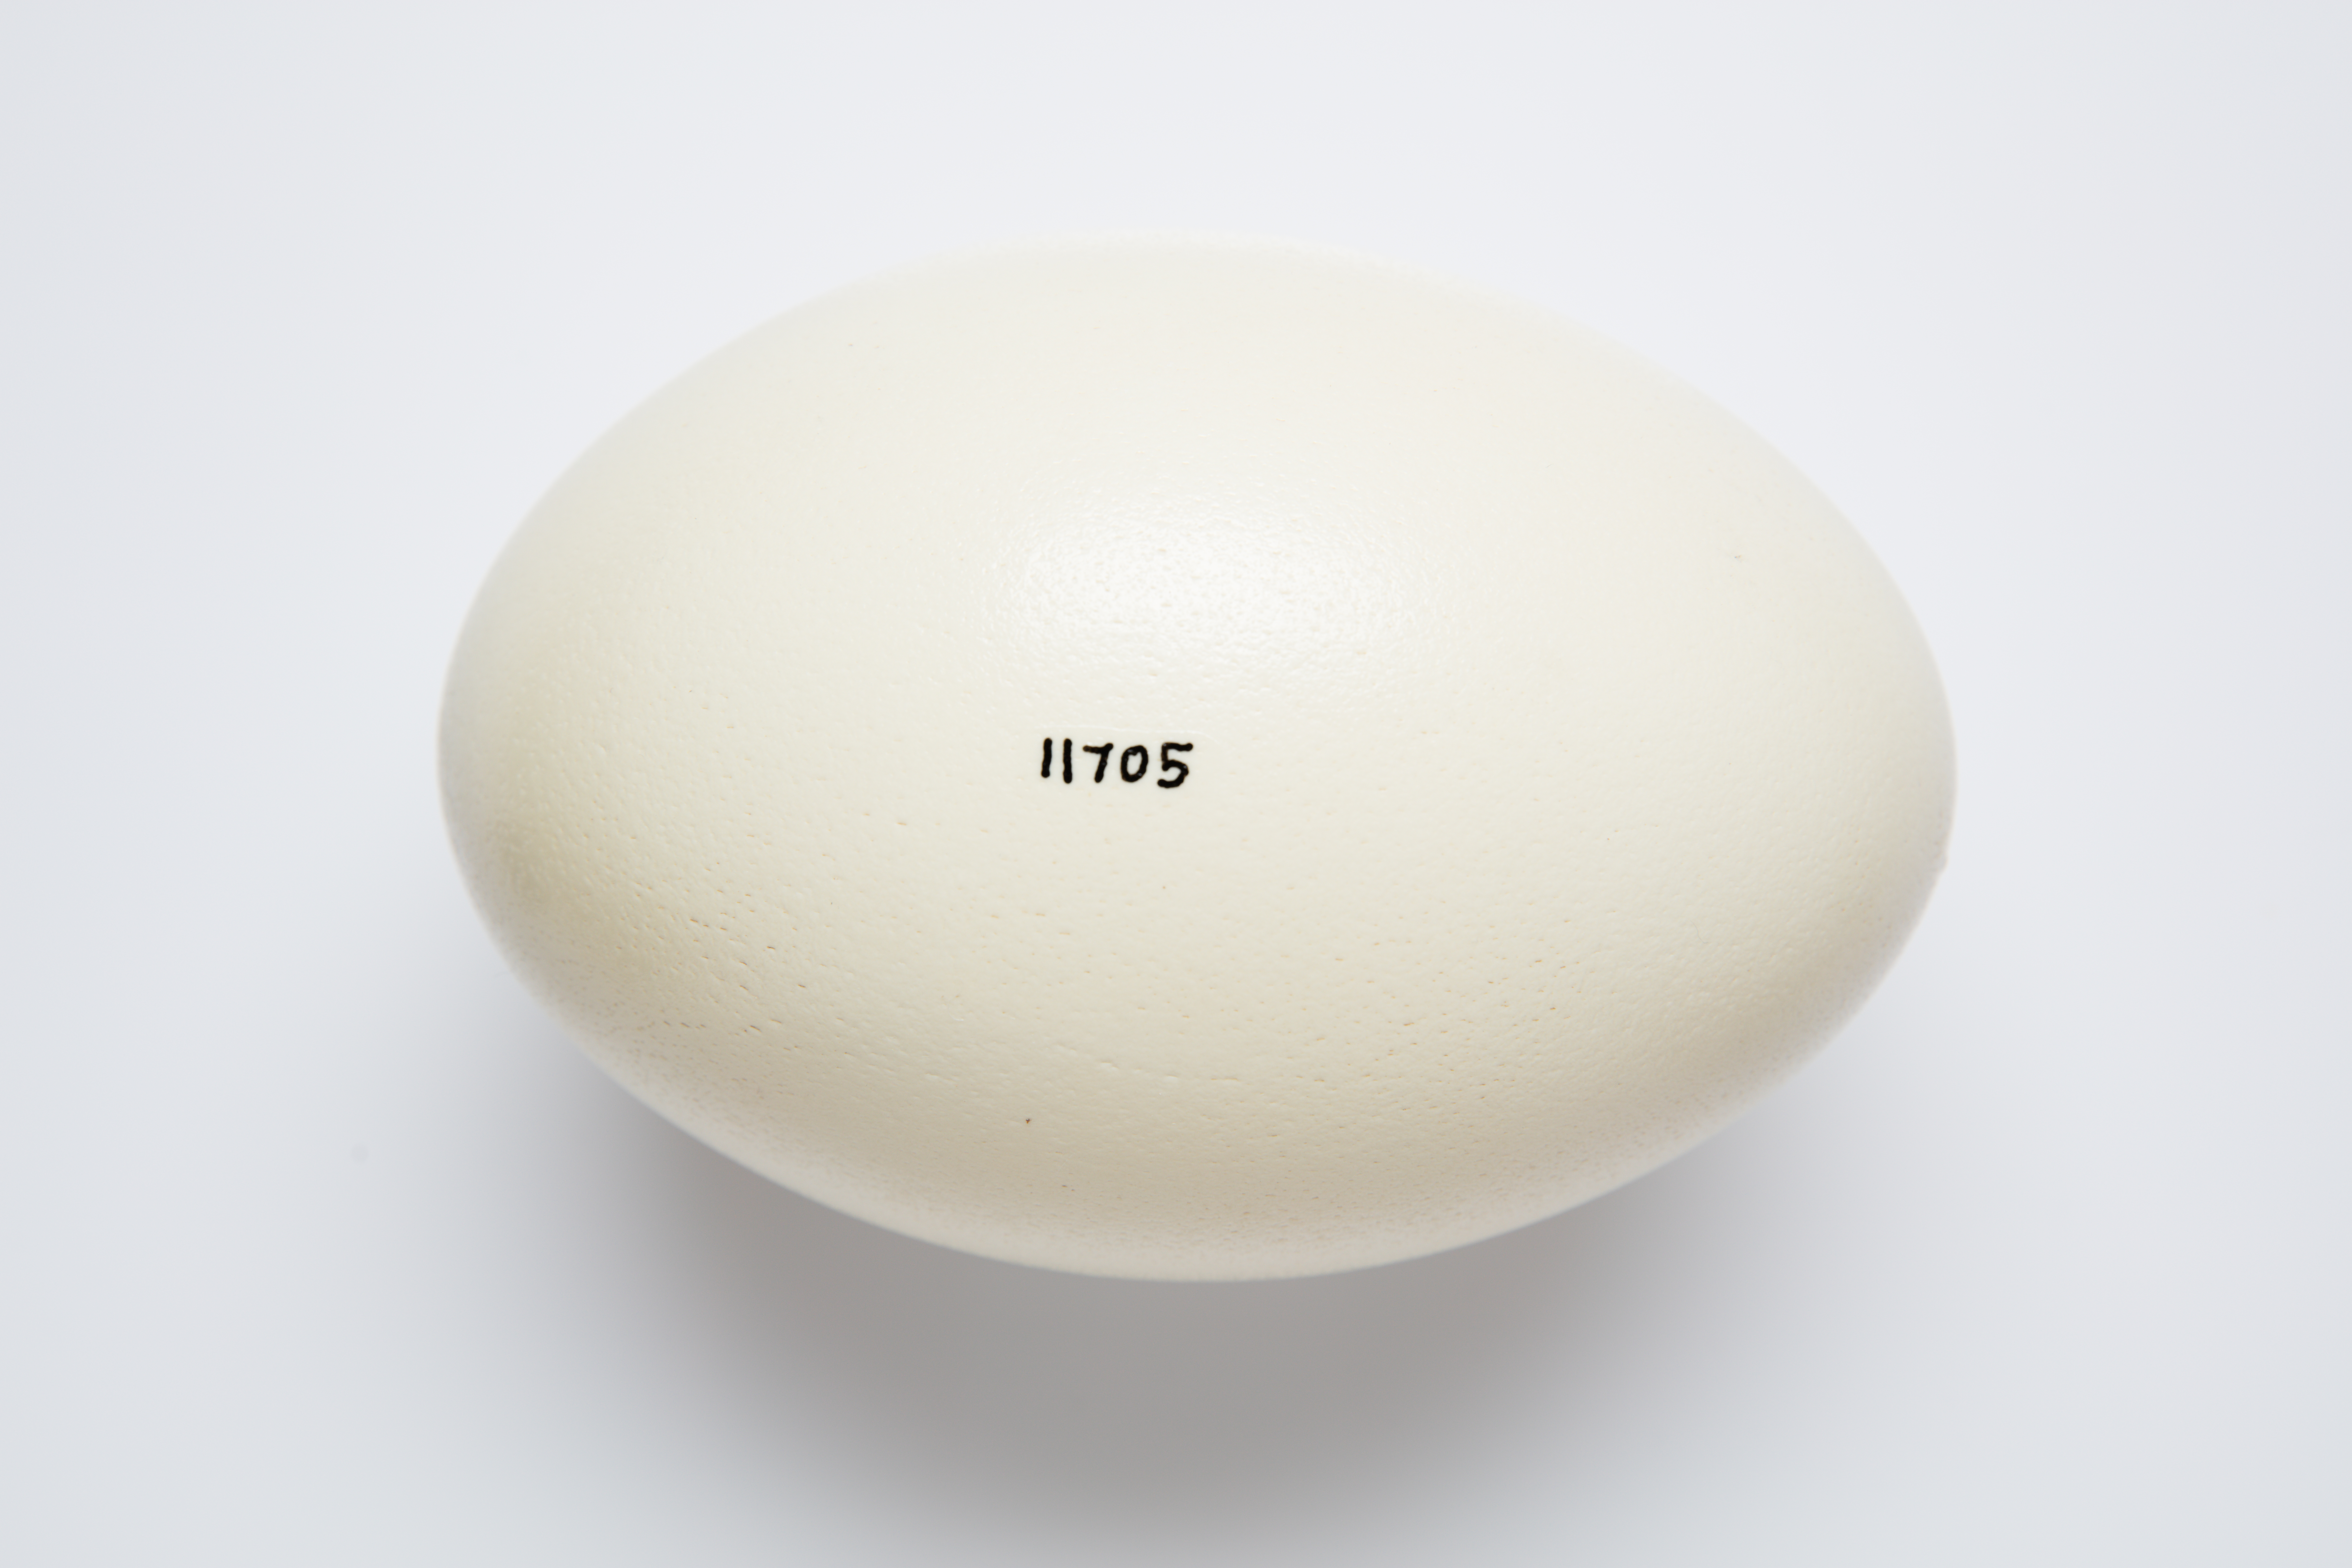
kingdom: Animalia
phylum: Chordata
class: Aves
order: Rheiformes
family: Rheidae
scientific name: Rheidae
